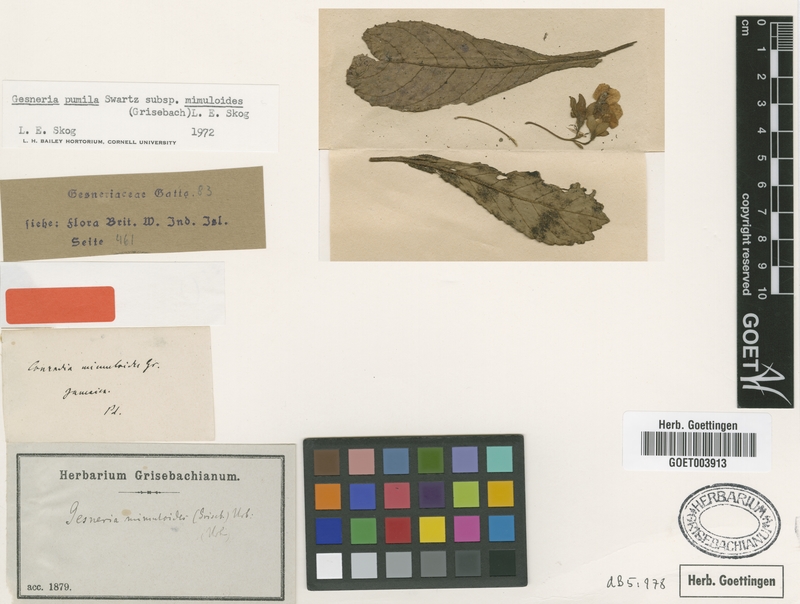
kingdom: Plantae
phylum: Tracheophyta
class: Magnoliopsida
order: Lamiales
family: Gesneriaceae
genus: Gesneria
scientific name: Gesneria pumila
